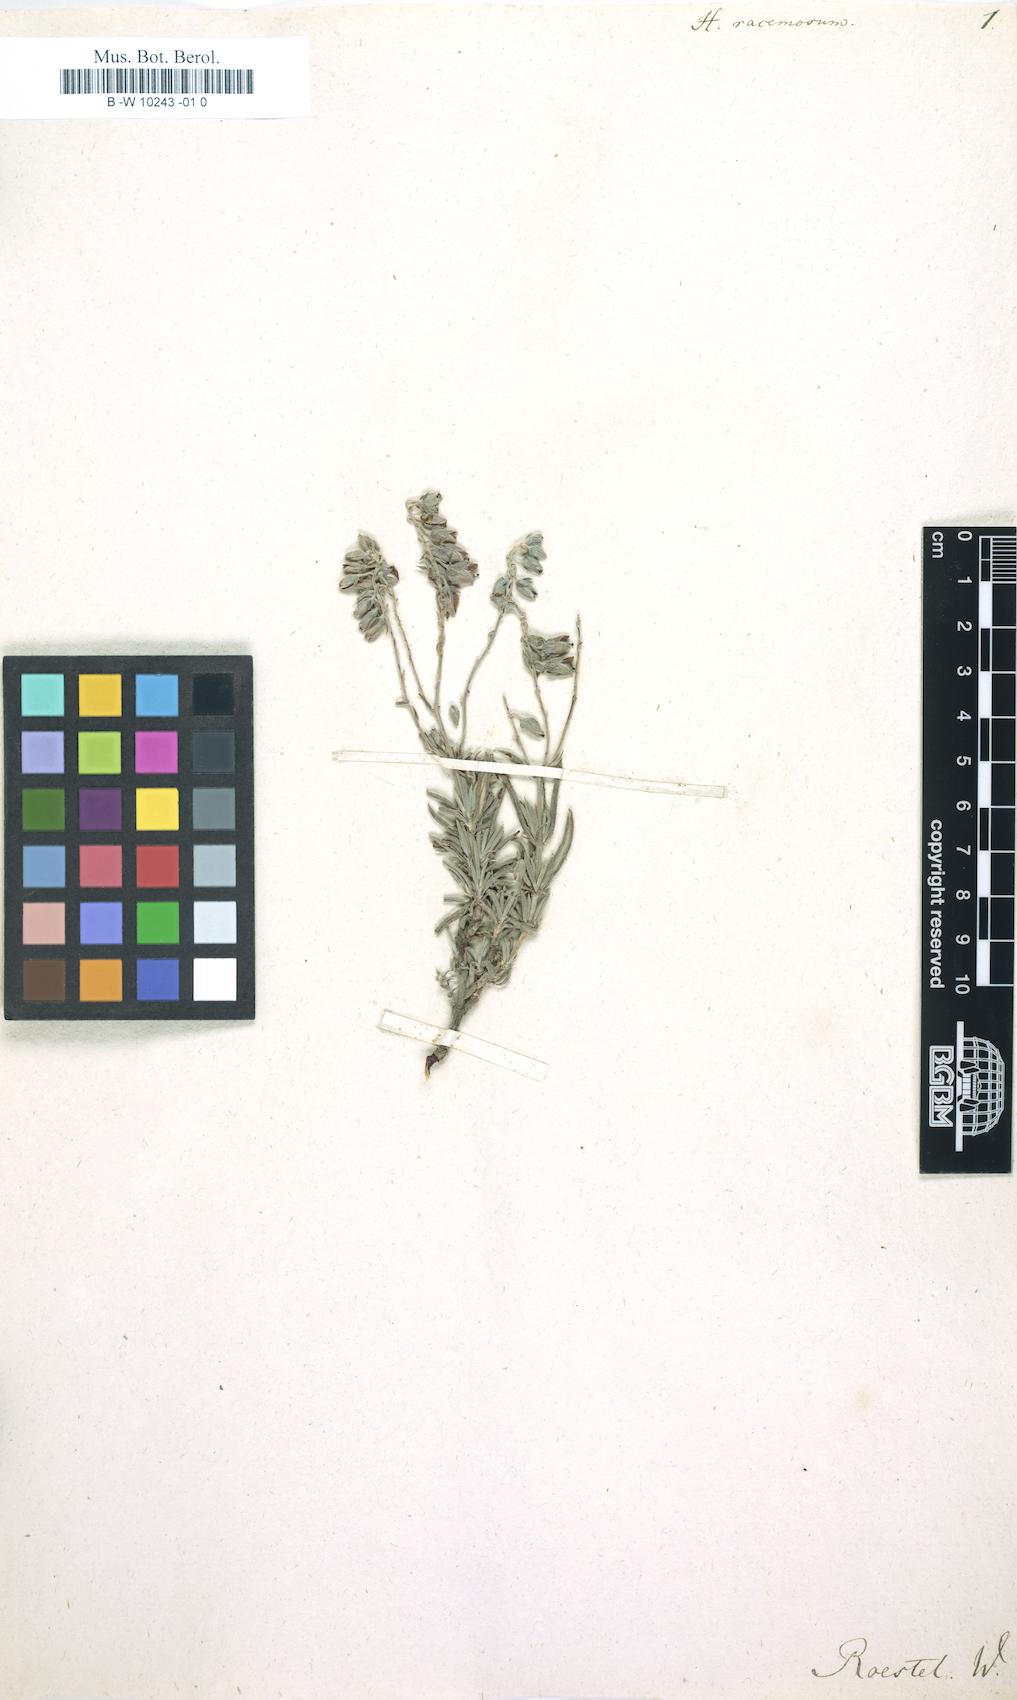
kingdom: Plantae
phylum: Tracheophyta
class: Magnoliopsida
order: Malvales
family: Cistaceae
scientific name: Cistaceae
